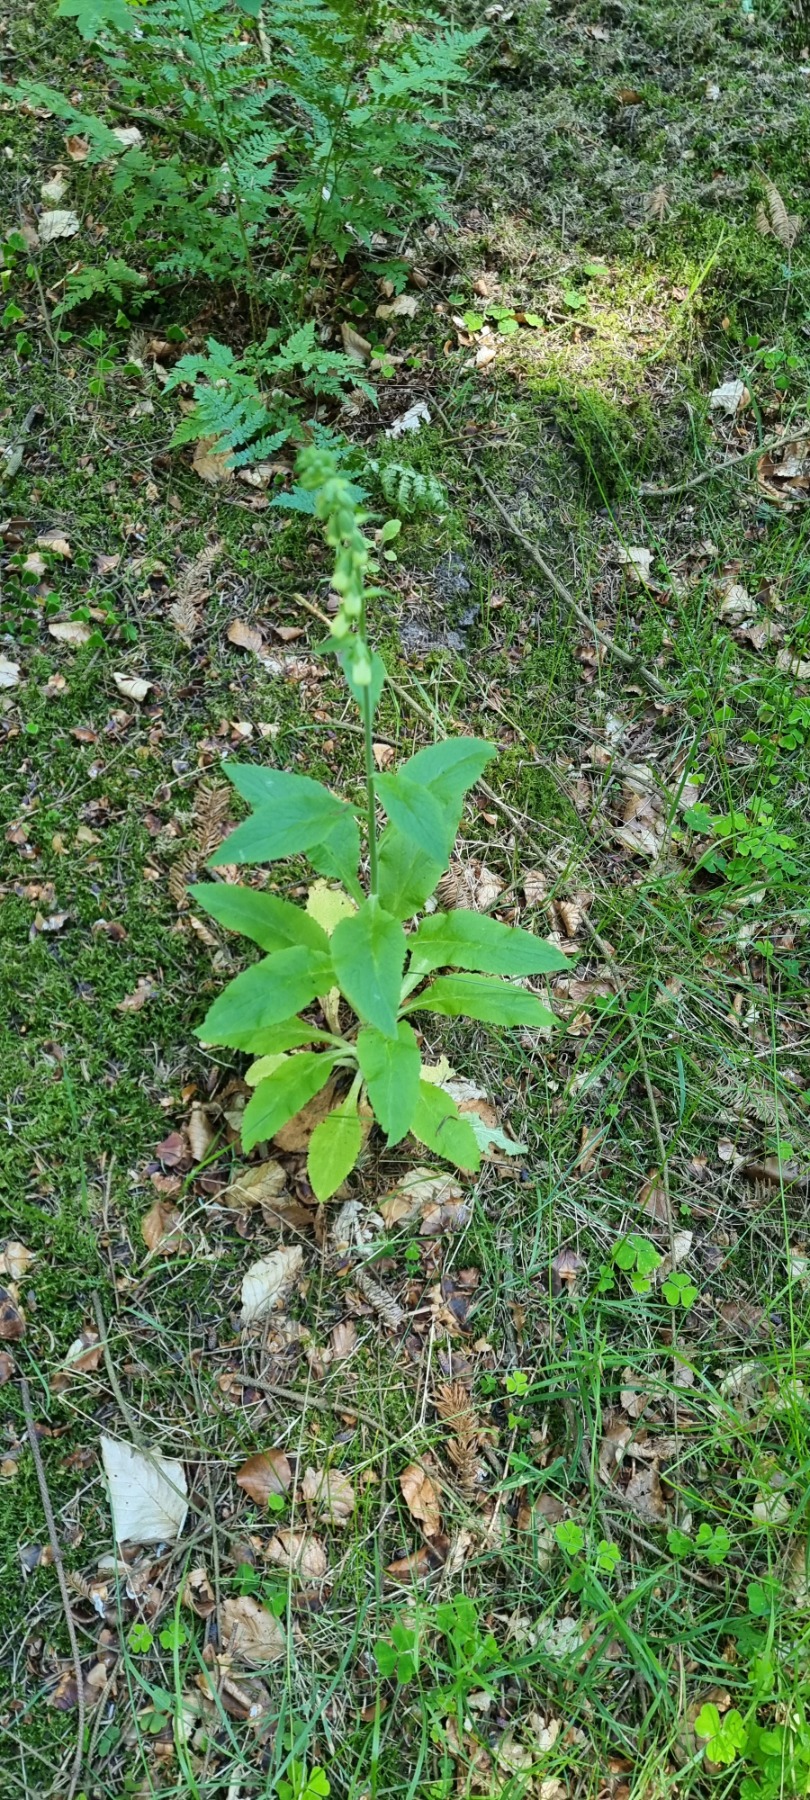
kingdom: Plantae
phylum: Tracheophyta
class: Magnoliopsida
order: Lamiales
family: Plantaginaceae
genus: Digitalis
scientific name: Digitalis purpurea
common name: Almindelig fingerbøl
